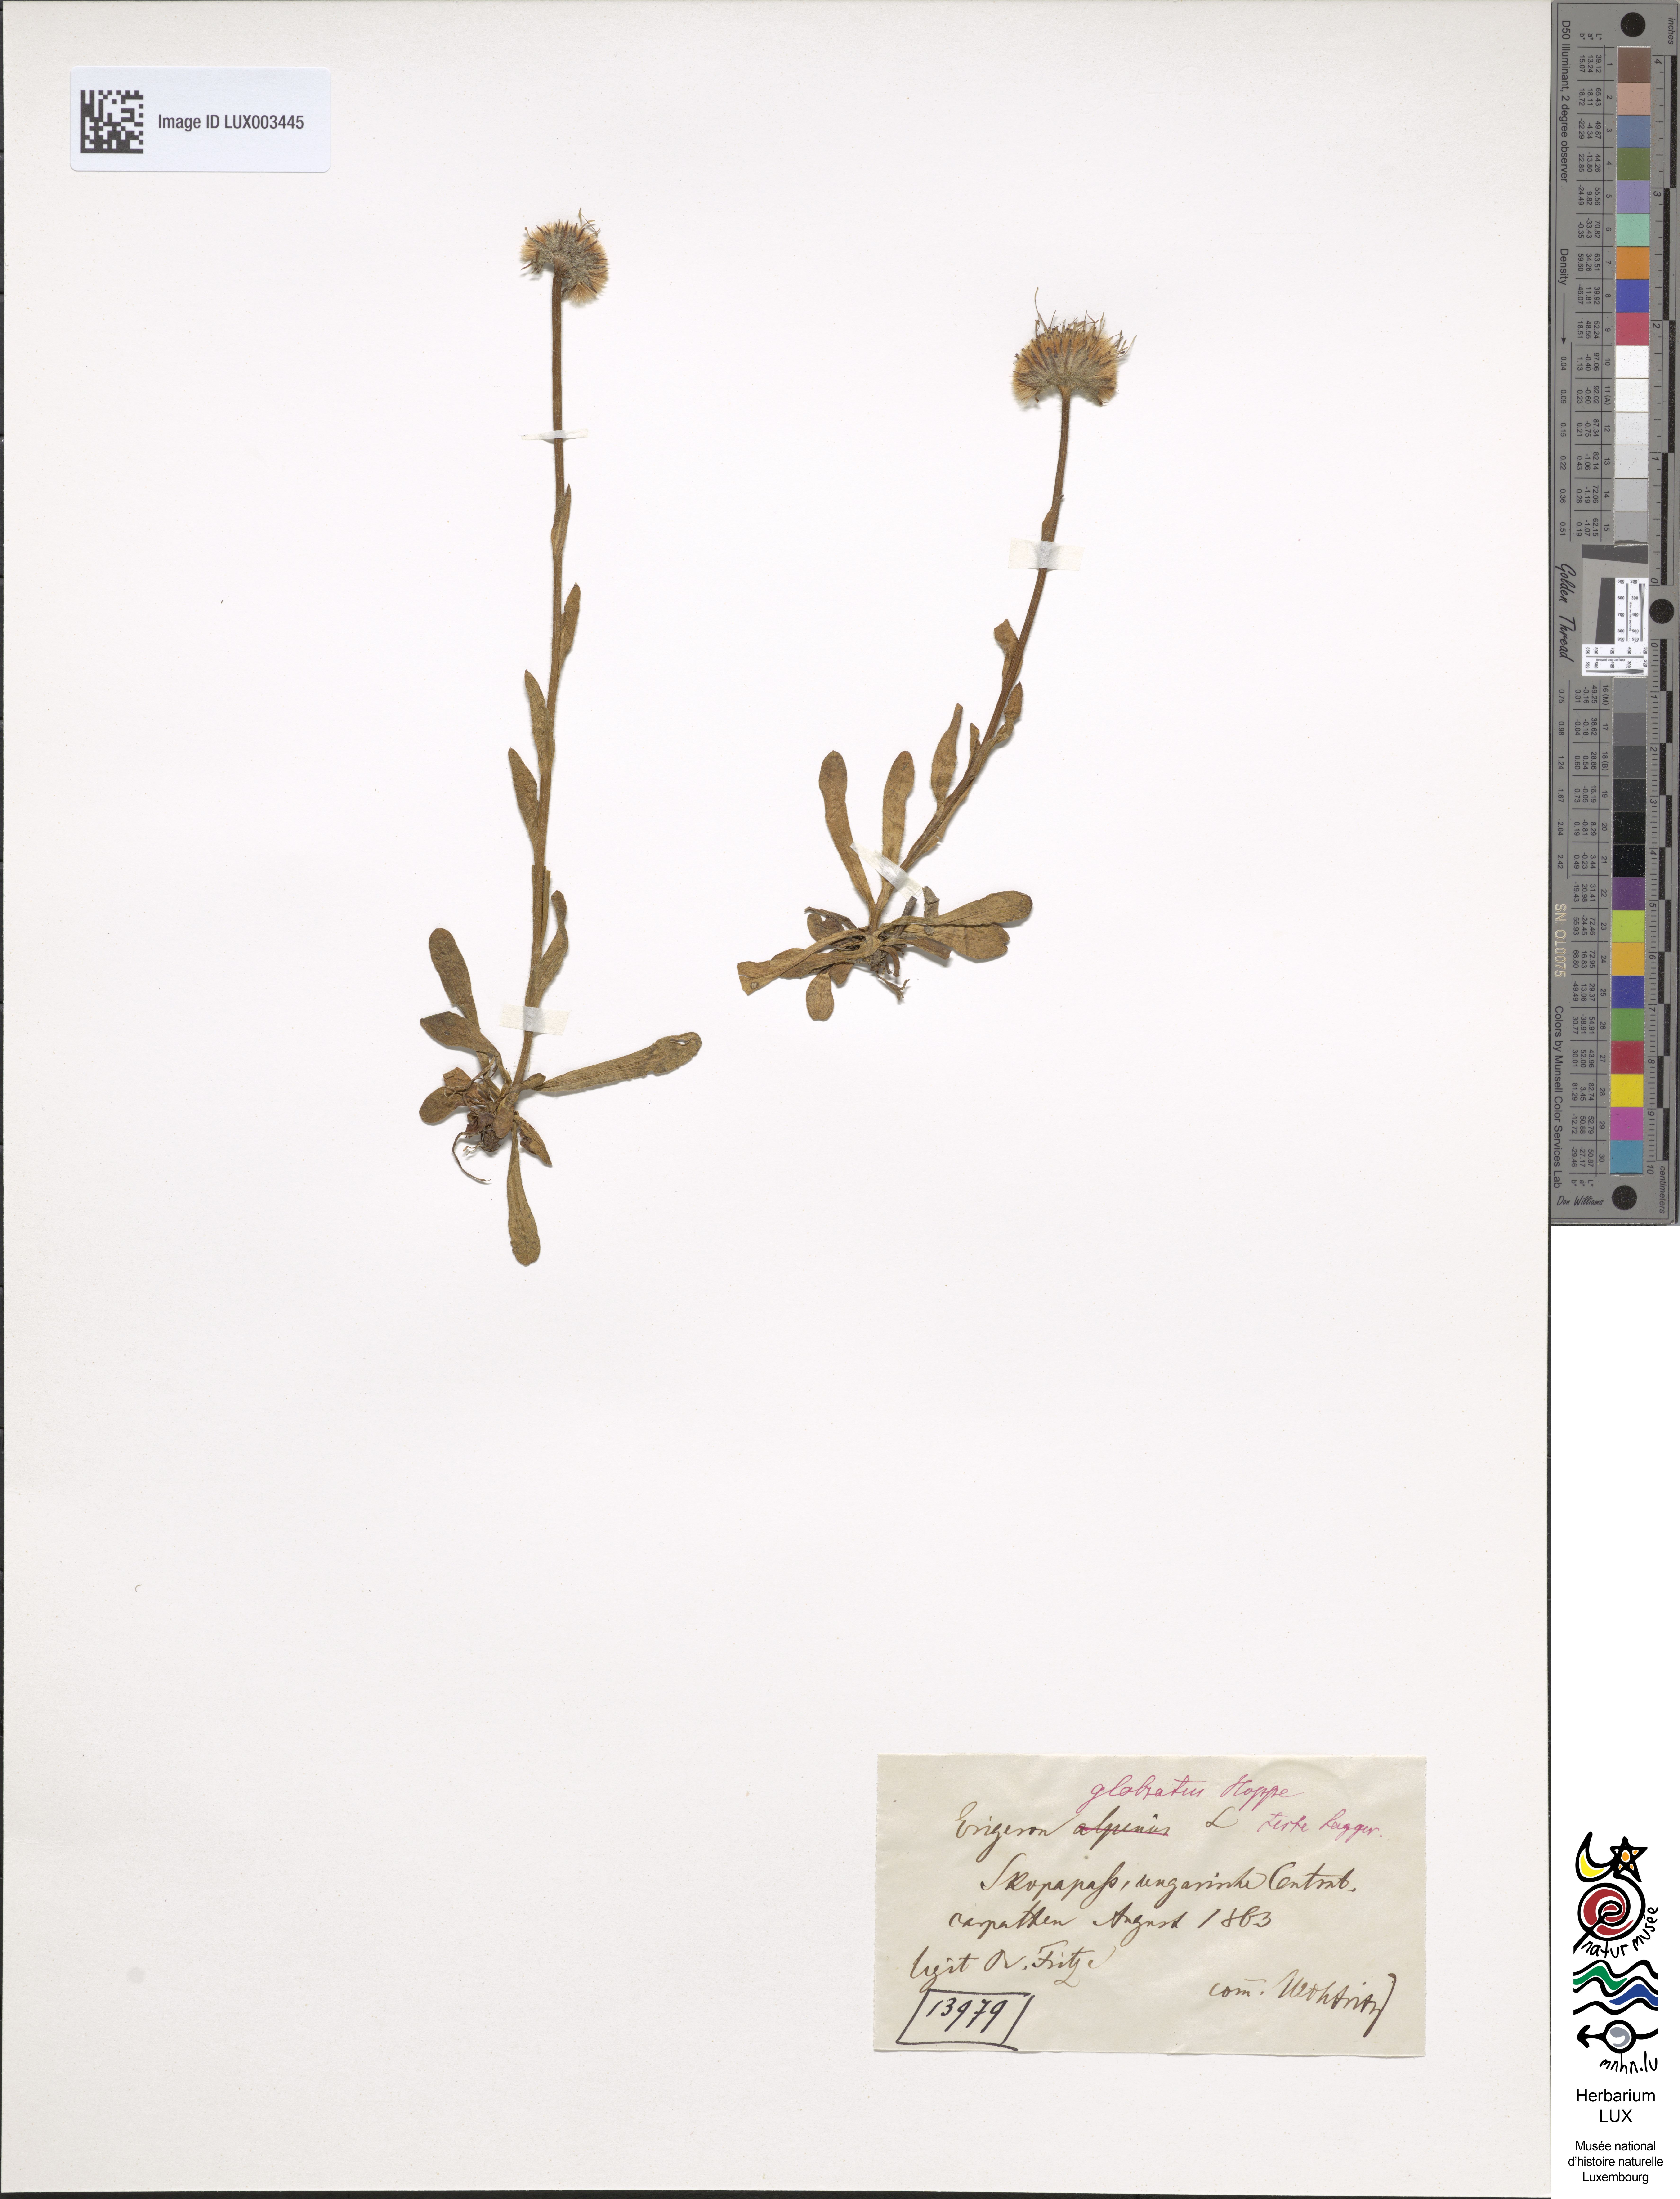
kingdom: Plantae
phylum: Tracheophyta
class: Magnoliopsida
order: Asterales
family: Asteraceae
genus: Erigeron
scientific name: Erigeron glabratus
